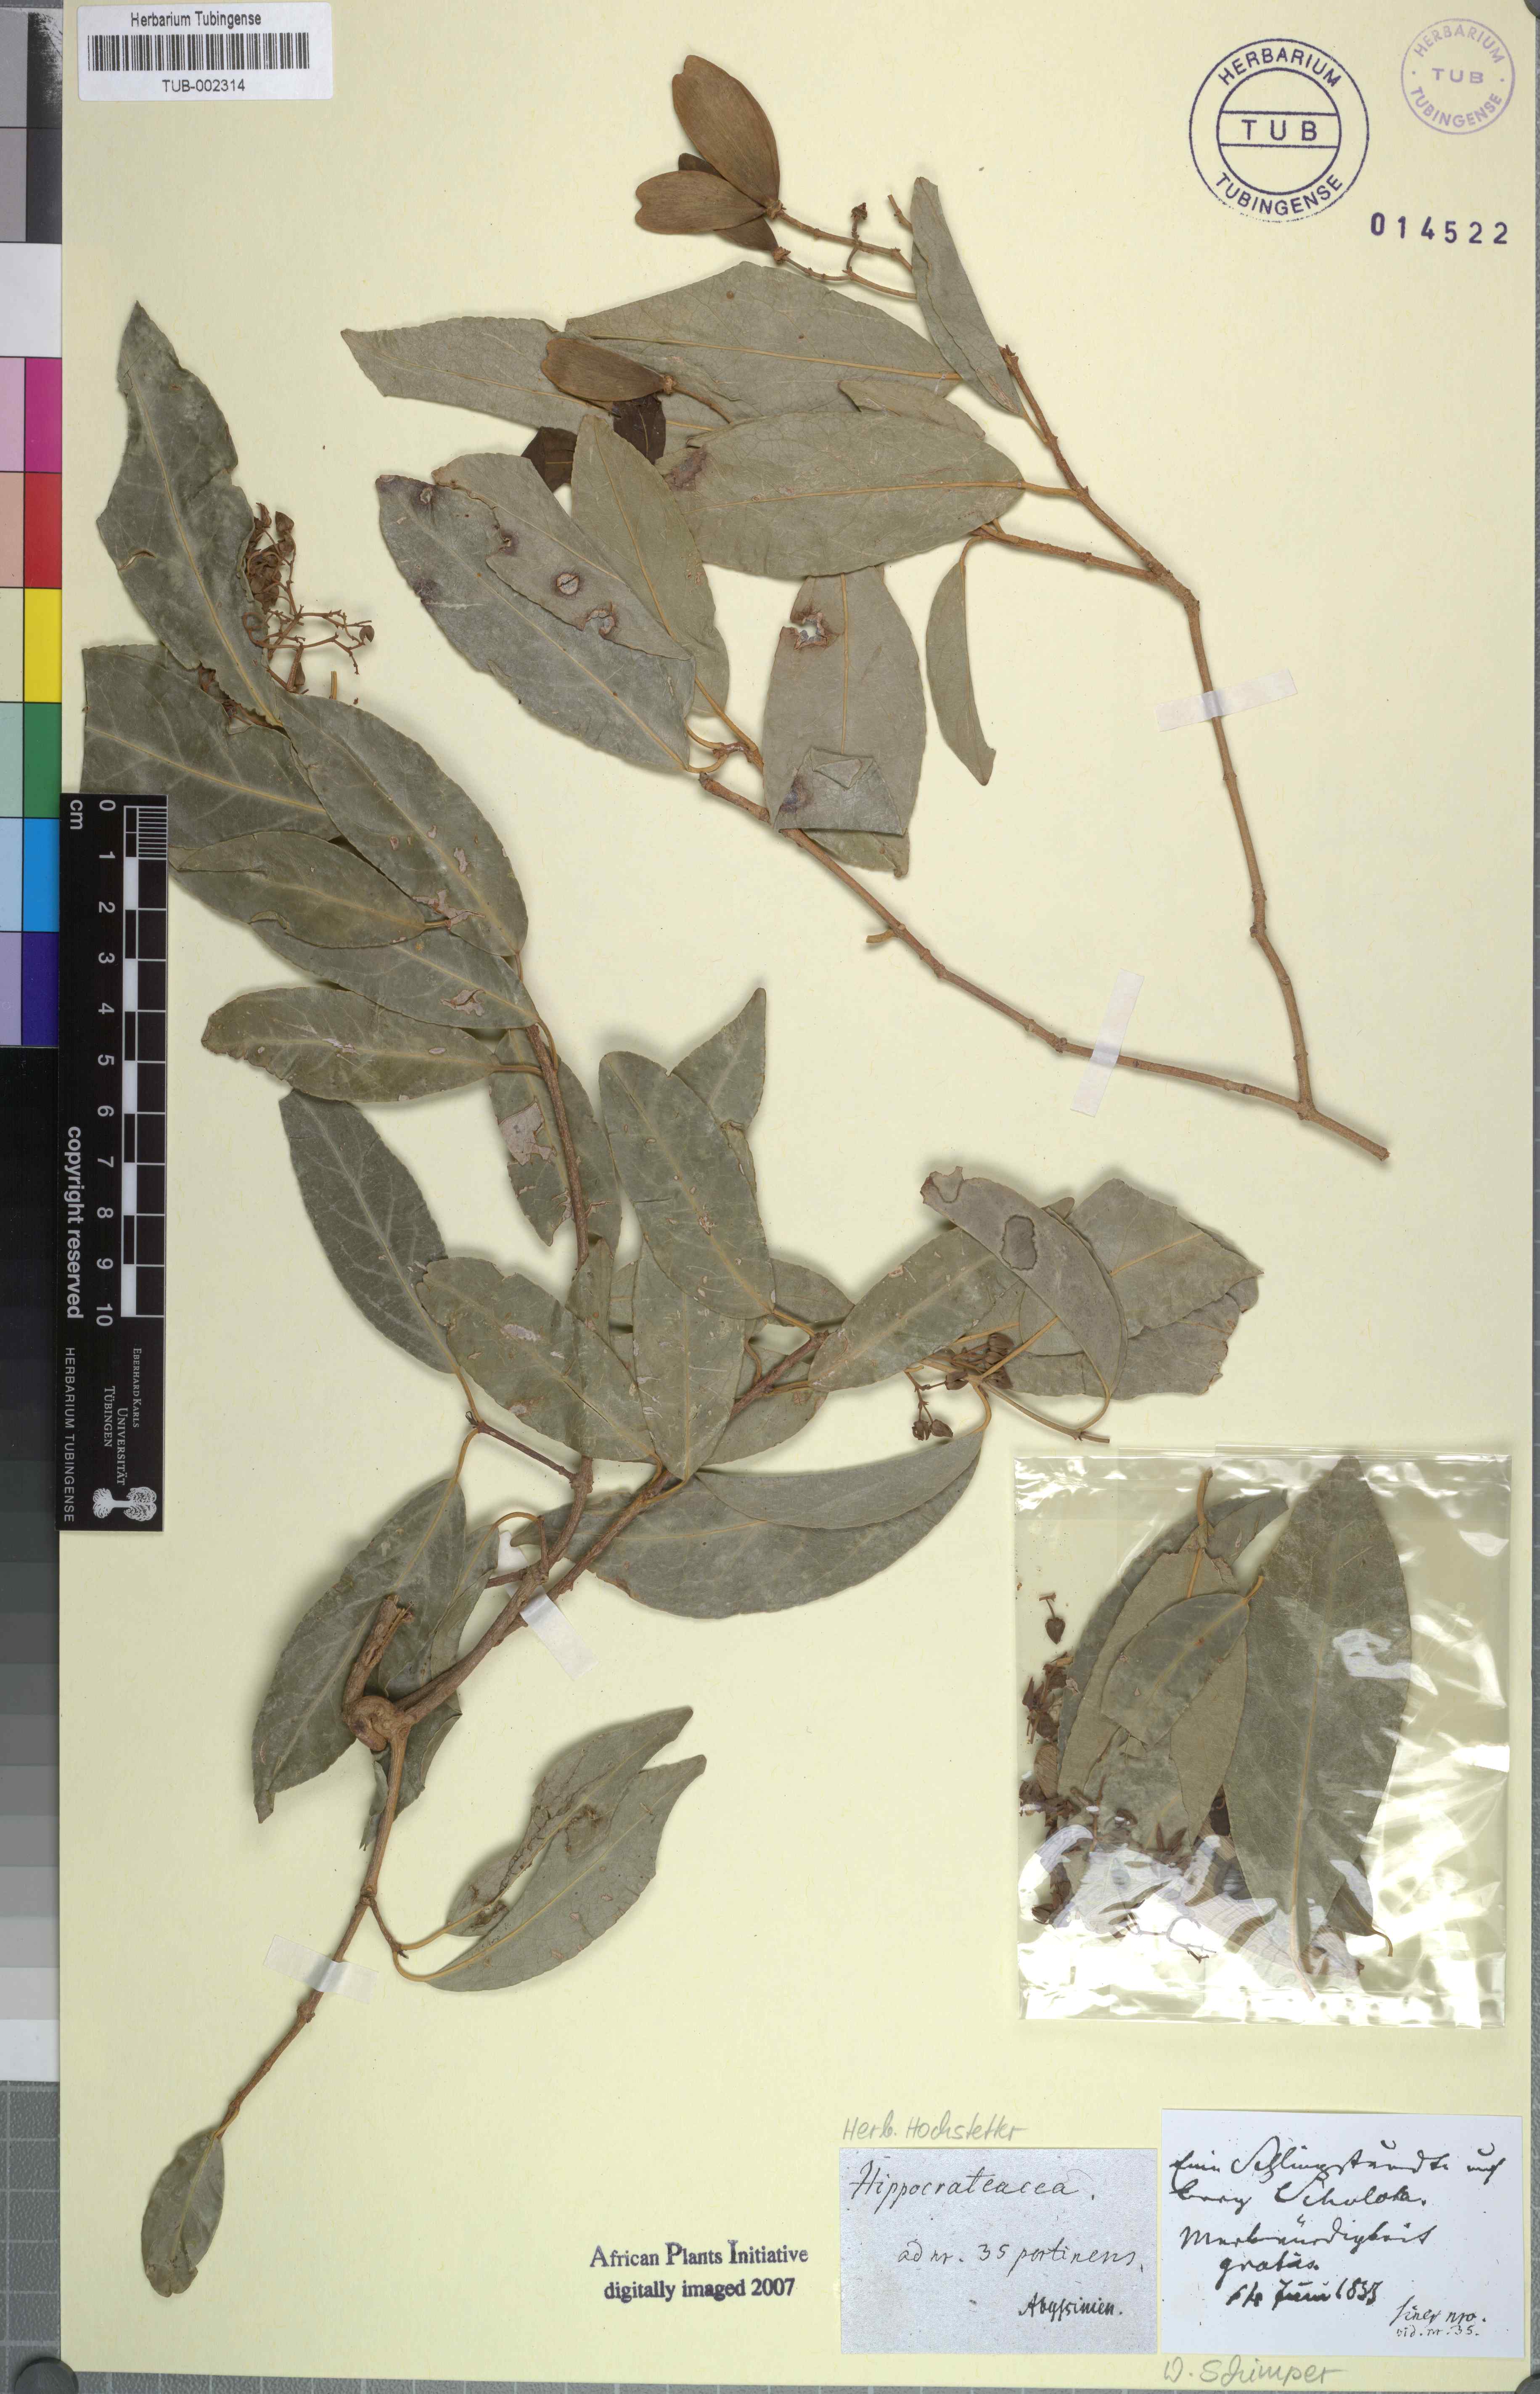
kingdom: Plantae
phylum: Tracheophyta
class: Magnoliopsida
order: Celastrales
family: Celastraceae
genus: Loeseneriella
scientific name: Loeseneriella obtusifolia
